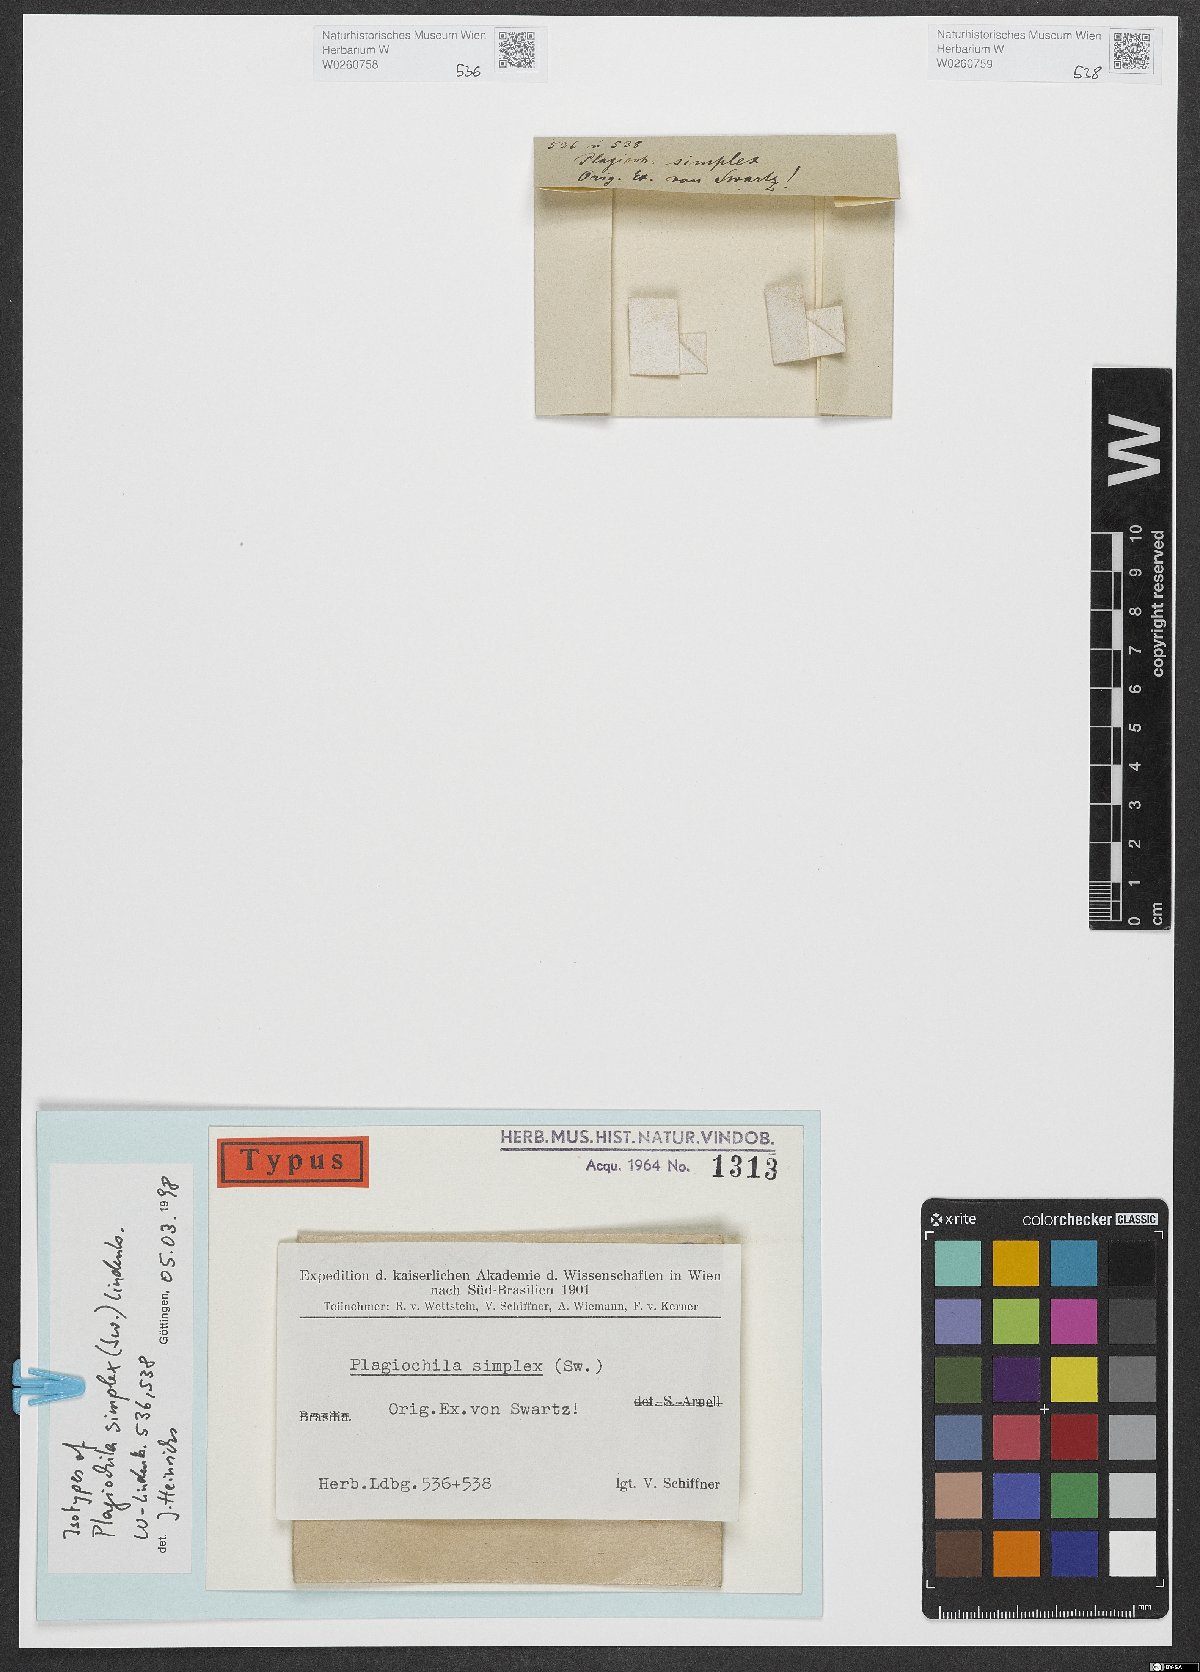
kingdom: Plantae
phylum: Marchantiophyta
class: Jungermanniopsida
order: Jungermanniales
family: Plagiochilaceae
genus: Plagiochila
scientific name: Plagiochila simplex
